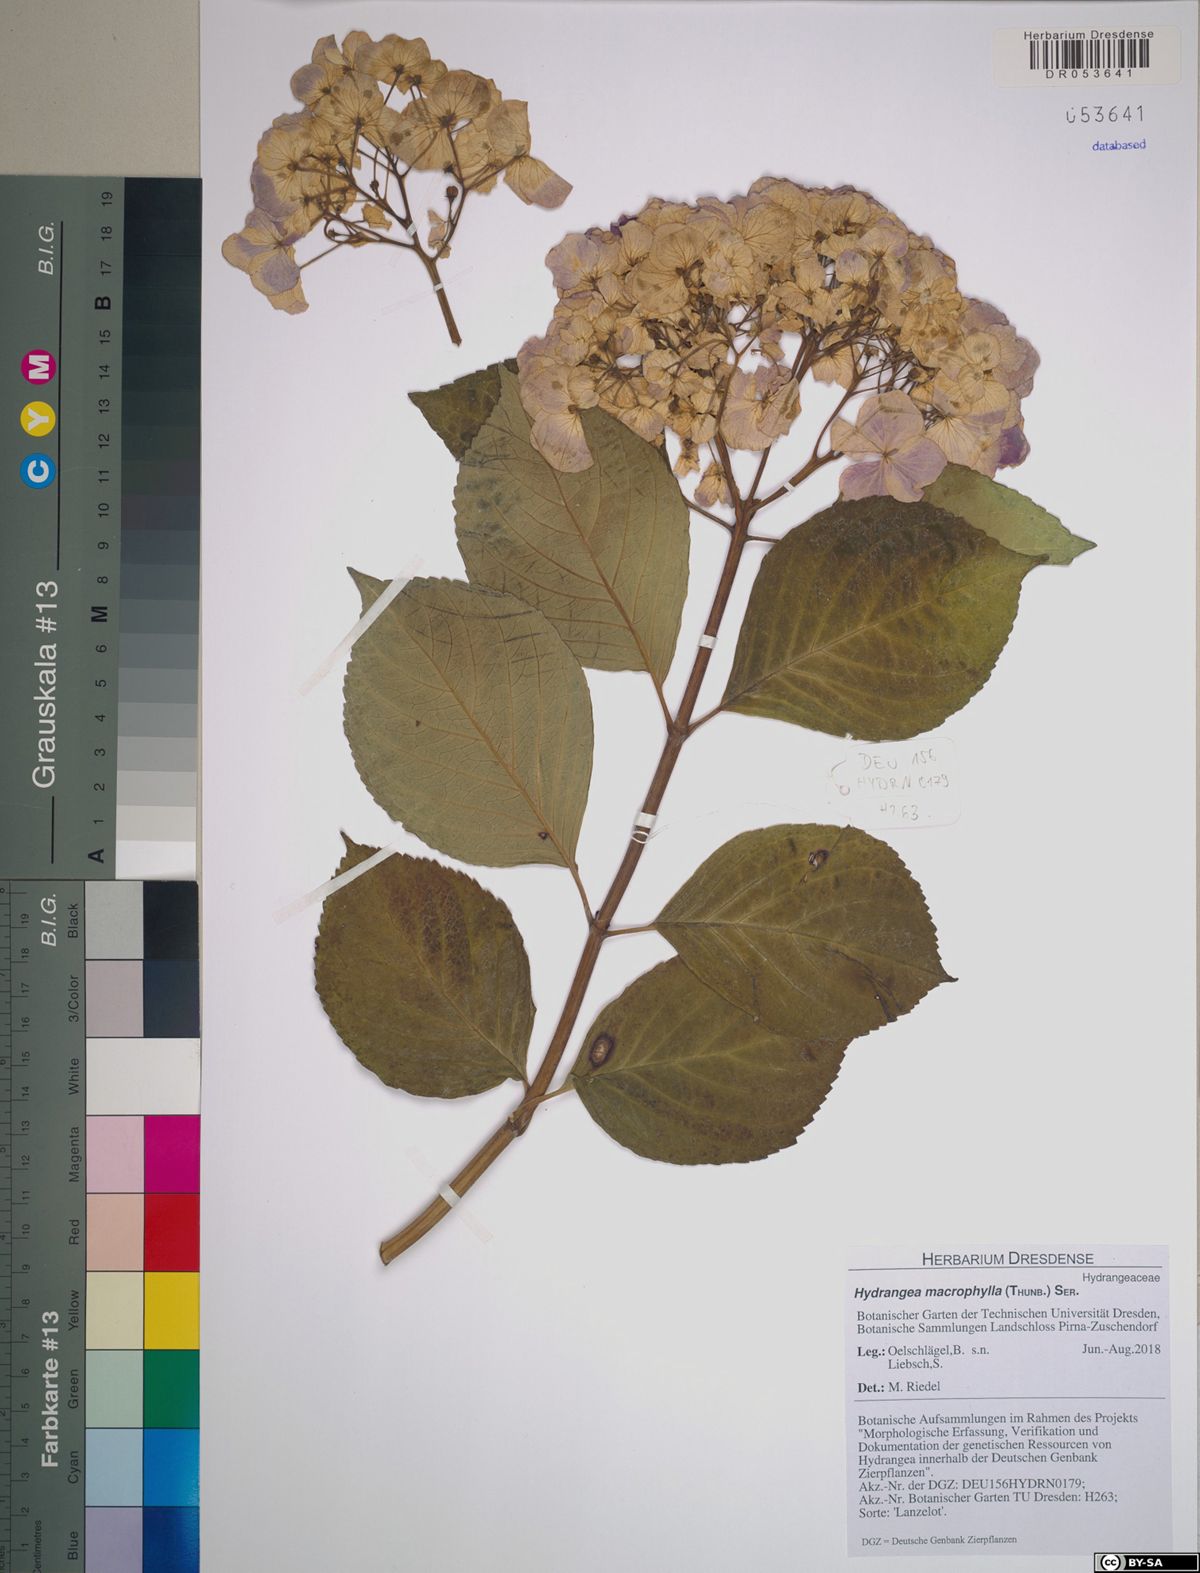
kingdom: Plantae
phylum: Tracheophyta
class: Magnoliopsida
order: Cornales
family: Hydrangeaceae
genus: Hydrangea
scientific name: Hydrangea macrophylla
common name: Hydrangea
